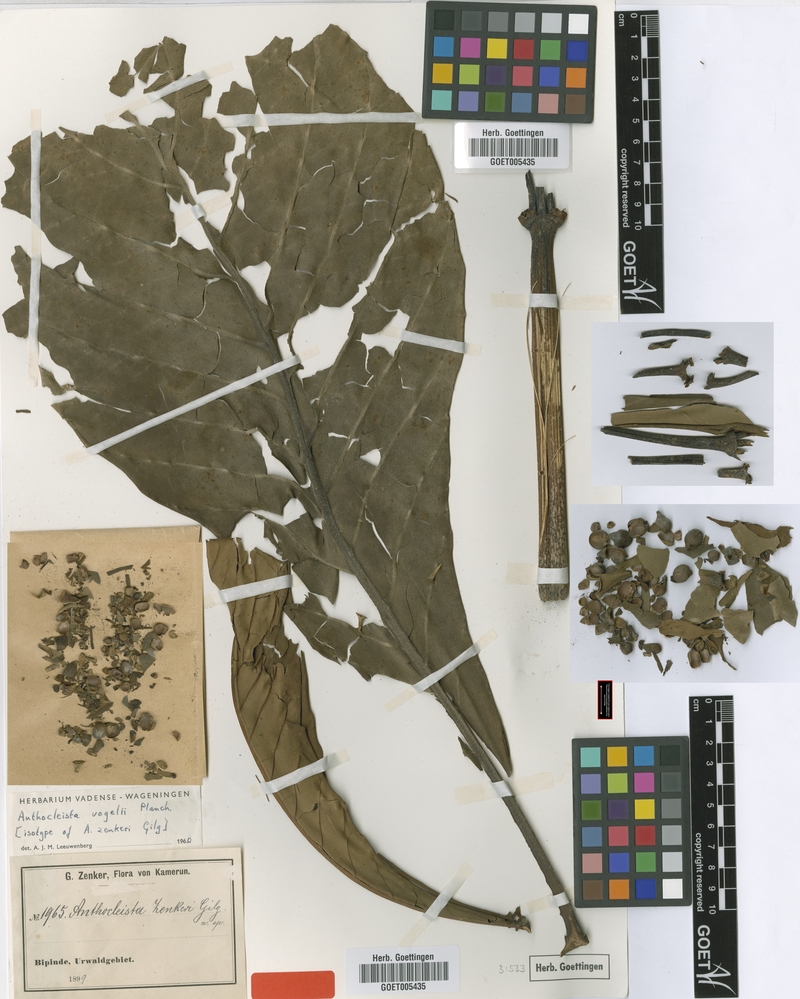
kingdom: Plantae
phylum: Tracheophyta
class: Magnoliopsida
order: Gentianales
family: Gentianaceae
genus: Anthocleista
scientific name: Anthocleista vogelii
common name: Cabbage tree
